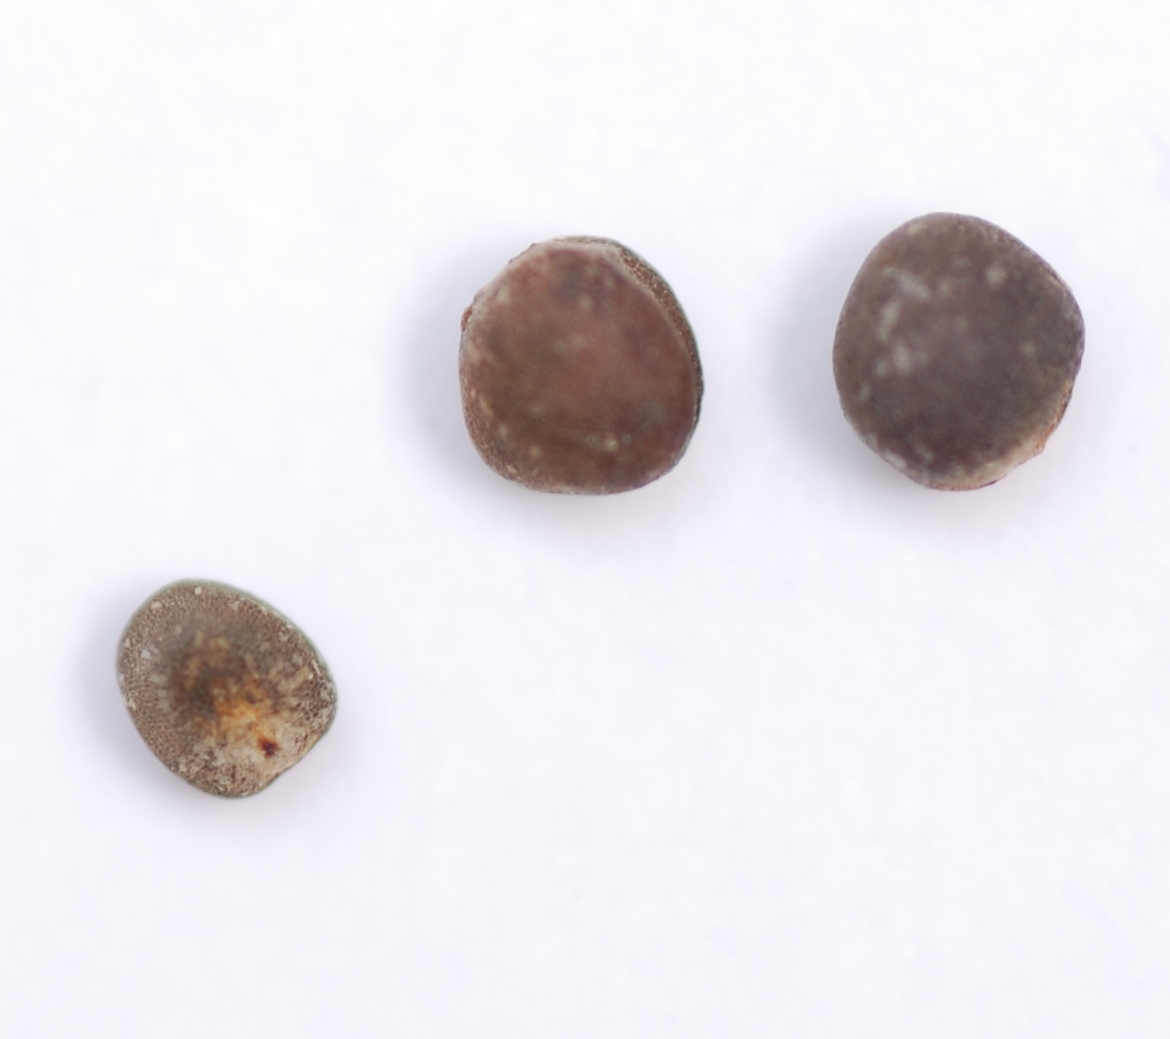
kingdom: Plantae
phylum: Tracheophyta
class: Magnoliopsida
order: Brassicales
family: Brassicaceae
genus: Brassica
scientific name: Brassica oleracea
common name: Cabbage
